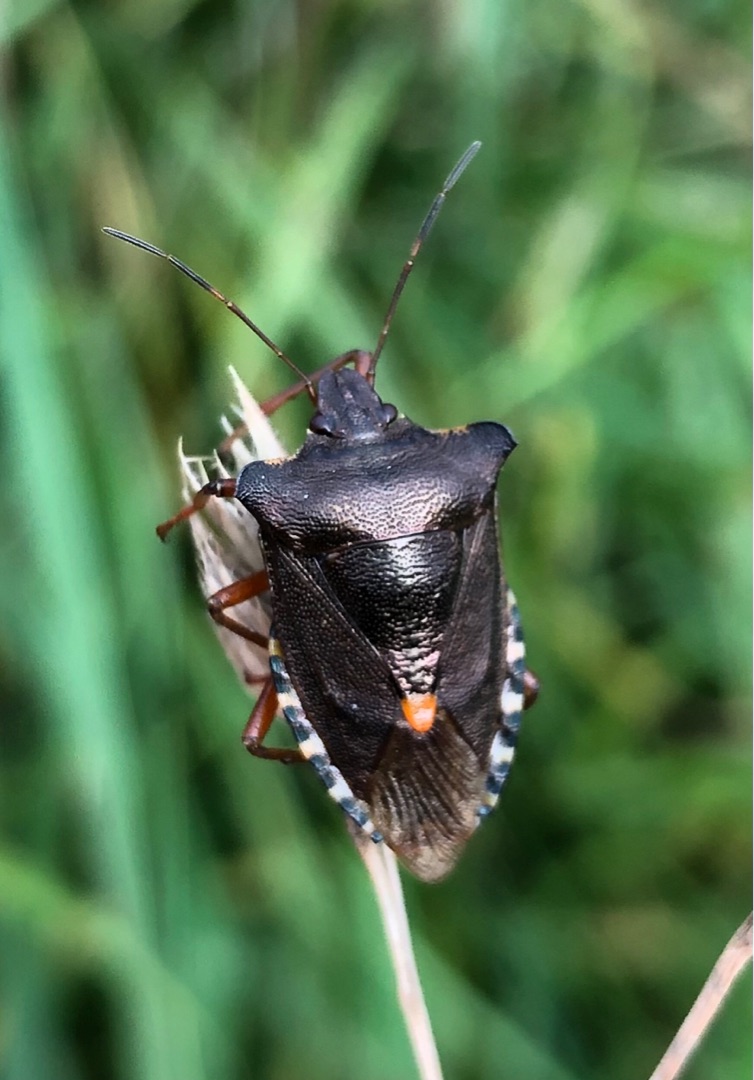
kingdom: Animalia
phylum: Arthropoda
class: Insecta
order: Hemiptera
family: Pentatomidae
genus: Pentatoma
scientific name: Pentatoma rufipes
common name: Rødbenet bredtæge
